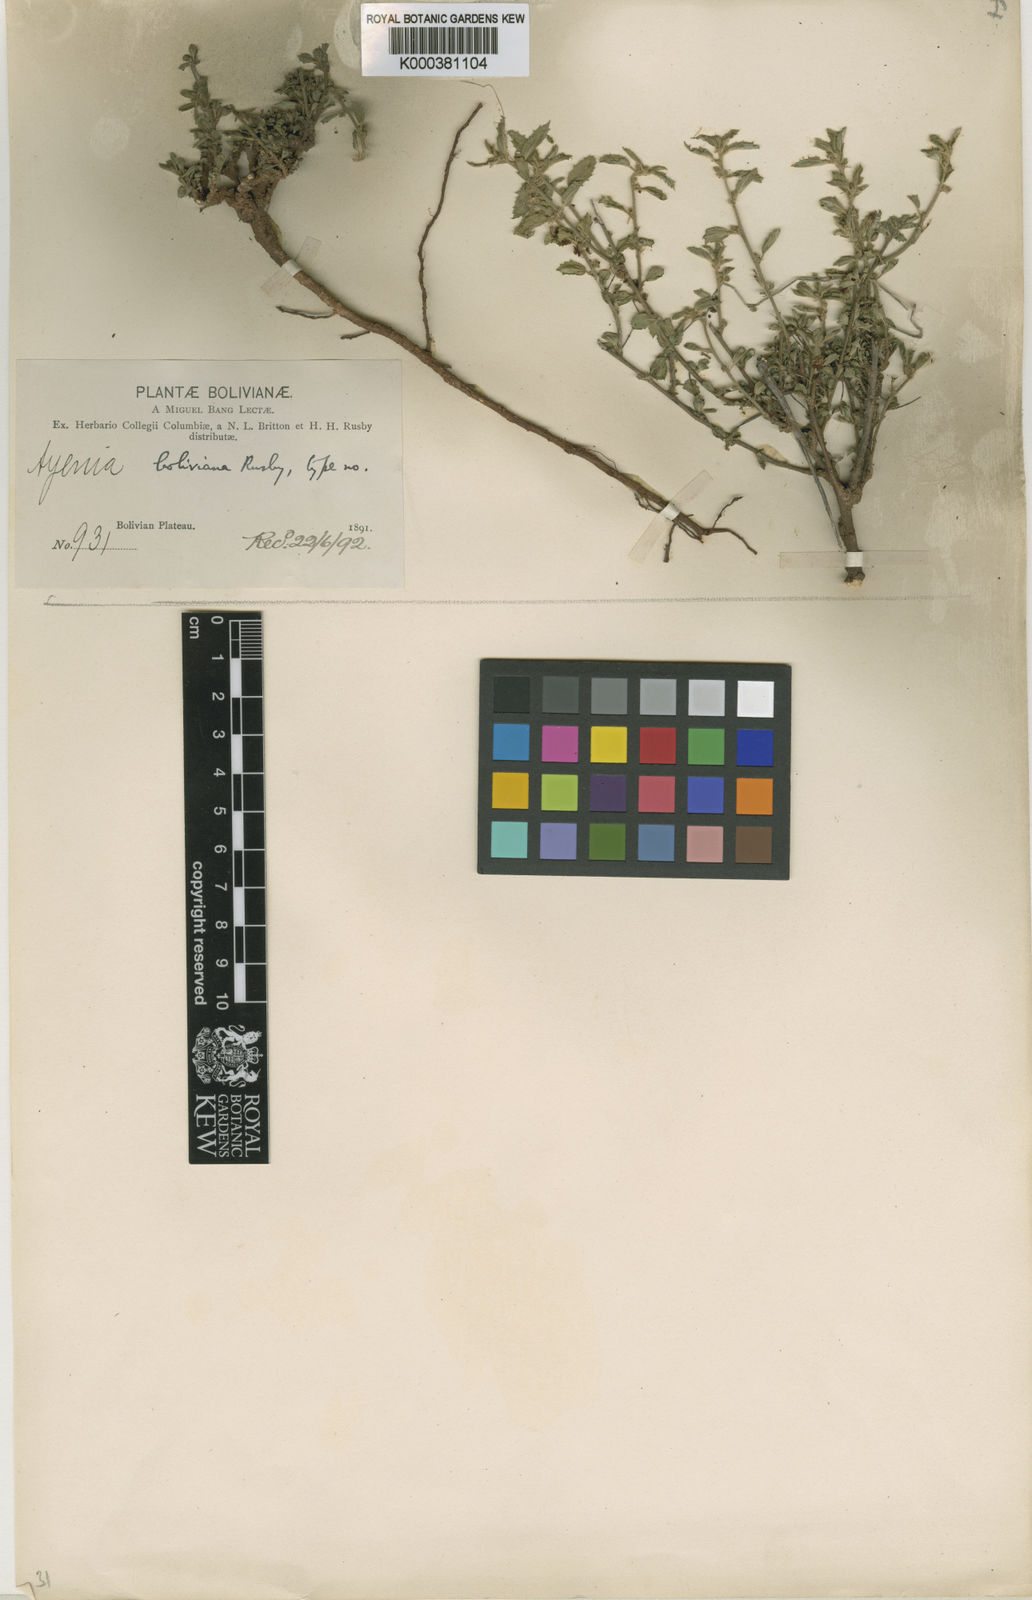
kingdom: Plantae
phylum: Tracheophyta
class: Magnoliopsida
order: Malvales
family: Malvaceae
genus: Ayenia
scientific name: Ayenia boliviana
